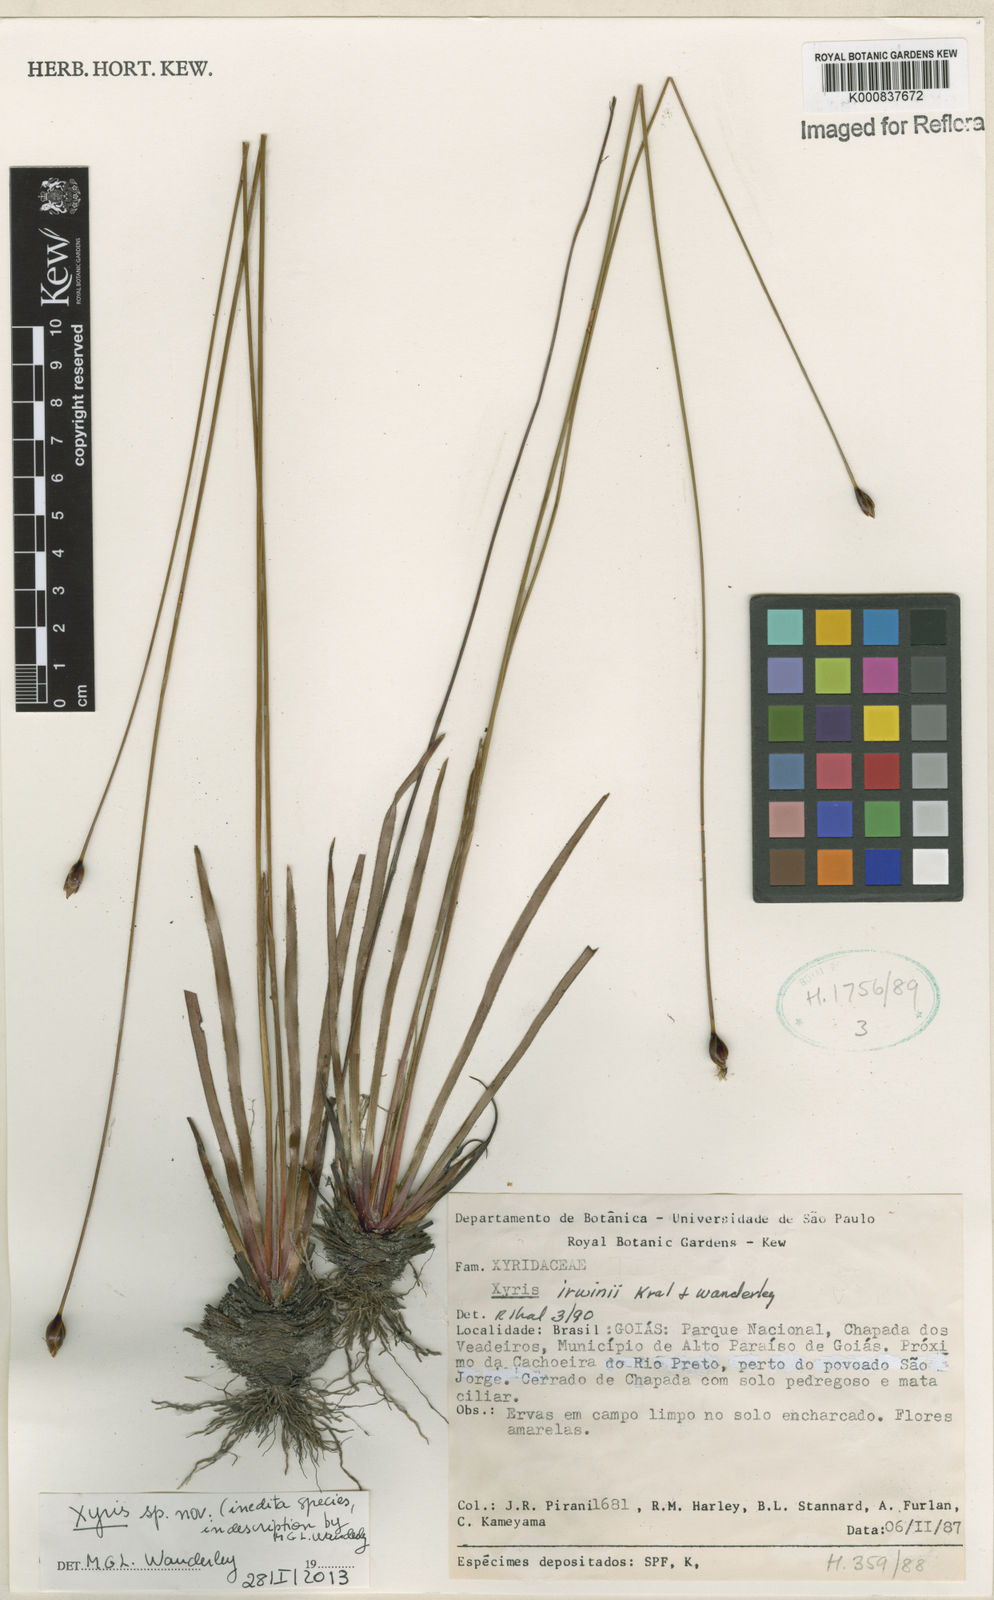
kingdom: Plantae
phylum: Tracheophyta
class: Liliopsida
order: Poales
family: Xyridaceae
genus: Xyris
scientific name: Xyris
